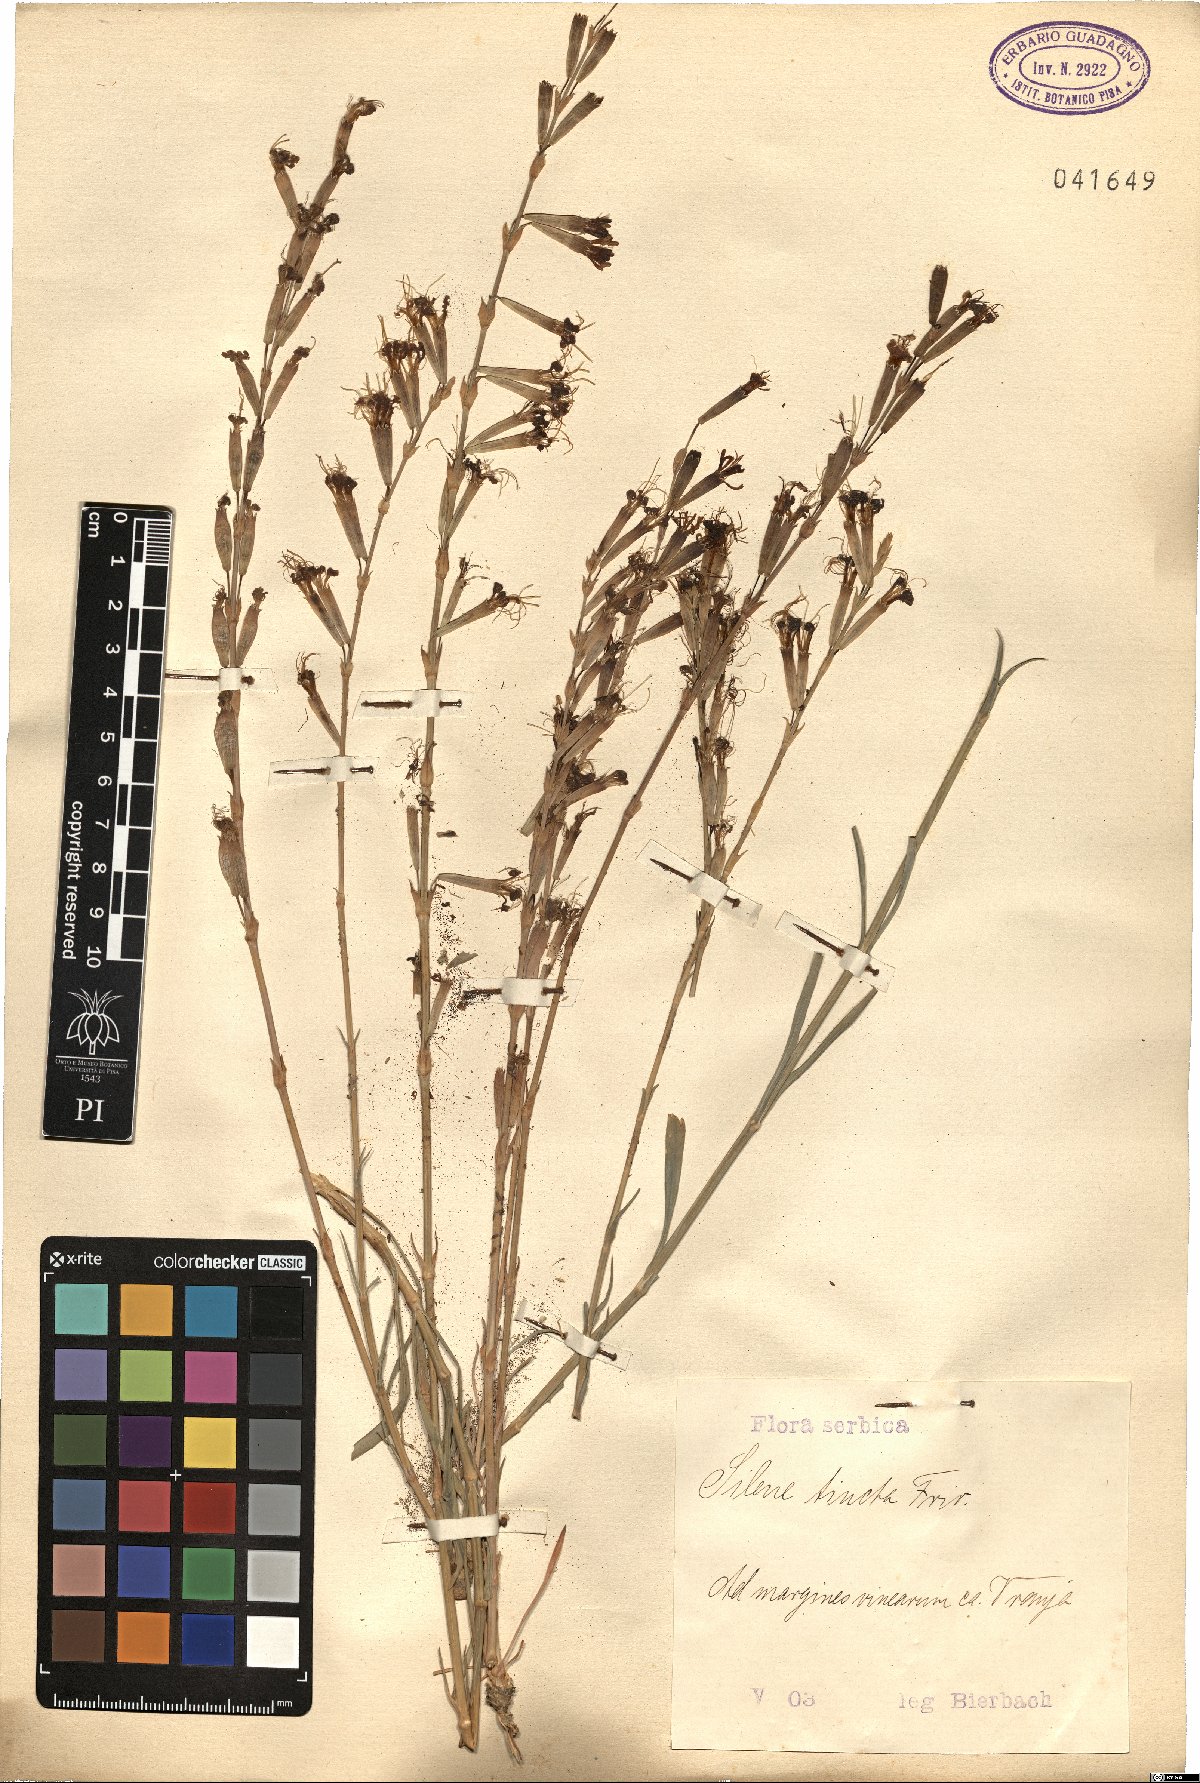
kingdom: Plantae
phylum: Tracheophyta
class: Magnoliopsida
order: Caryophyllales
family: Caryophyllaceae
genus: Silene
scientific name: Silene frivaldskyana
